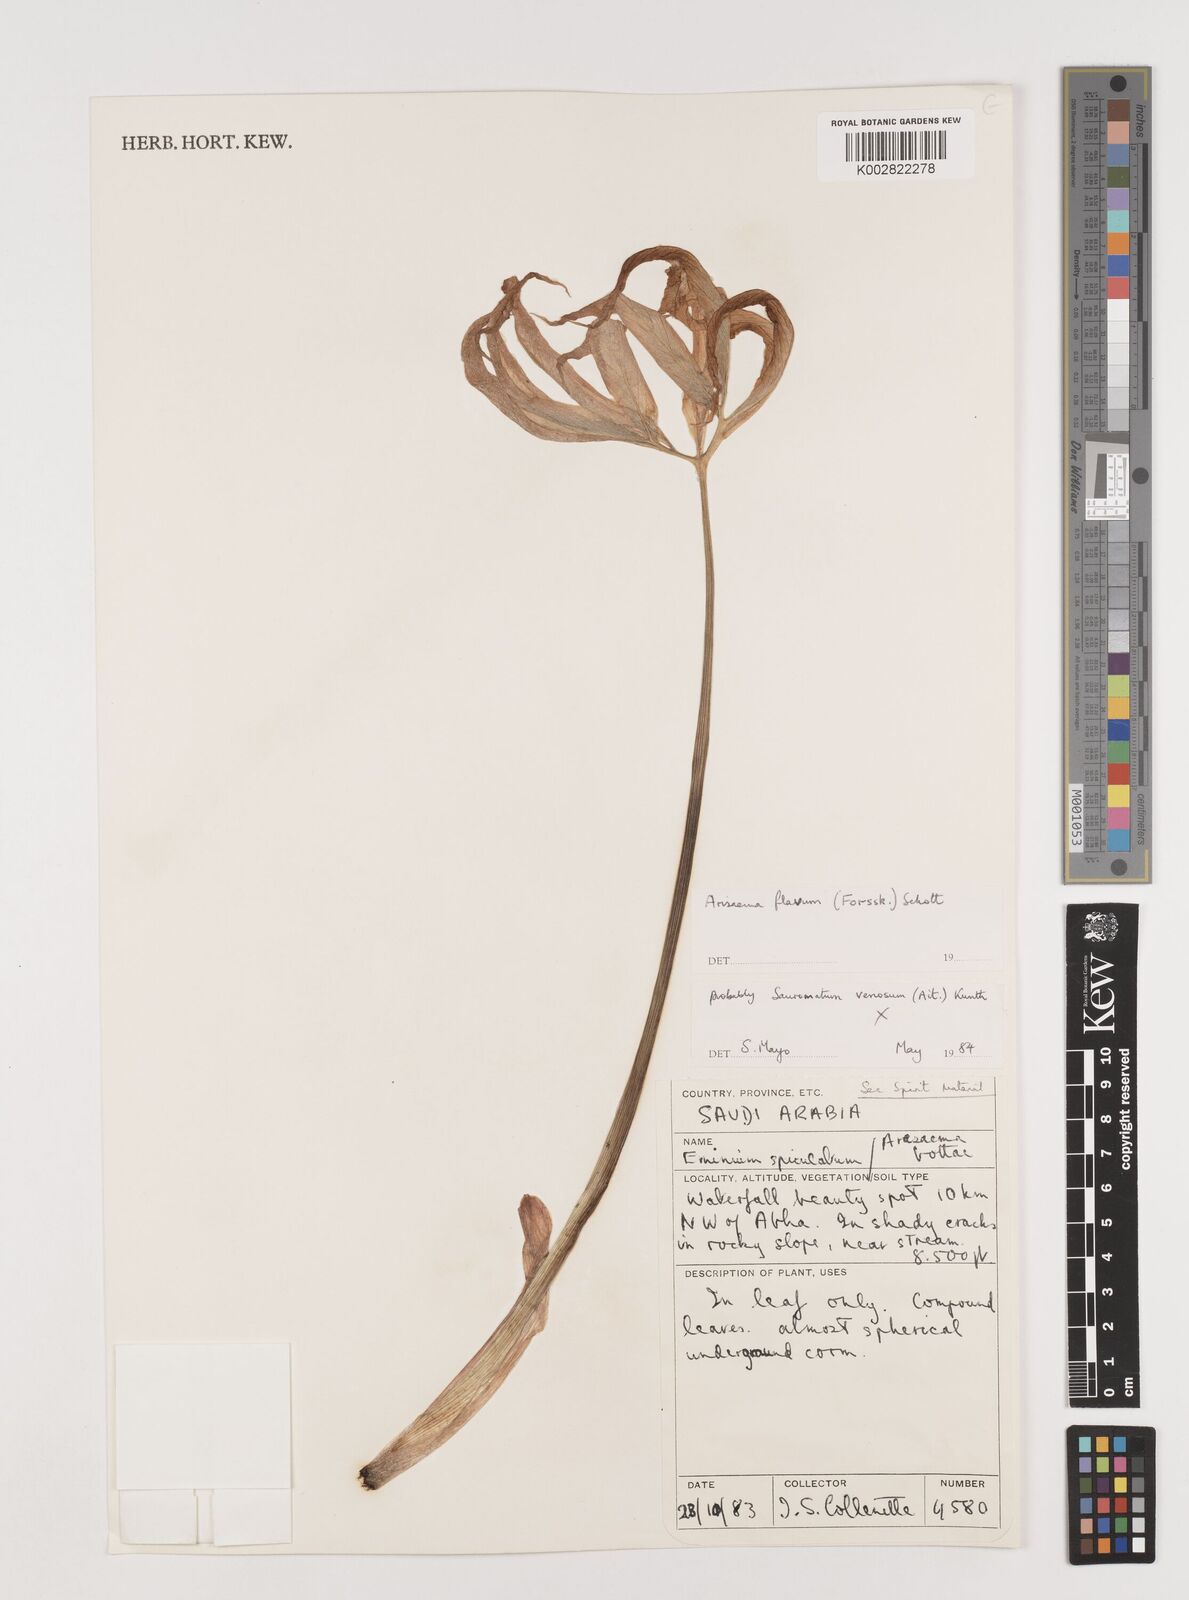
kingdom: Plantae
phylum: Tracheophyta
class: Liliopsida
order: Alismatales
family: Araceae
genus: Arisaema
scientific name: Arisaema flavum
